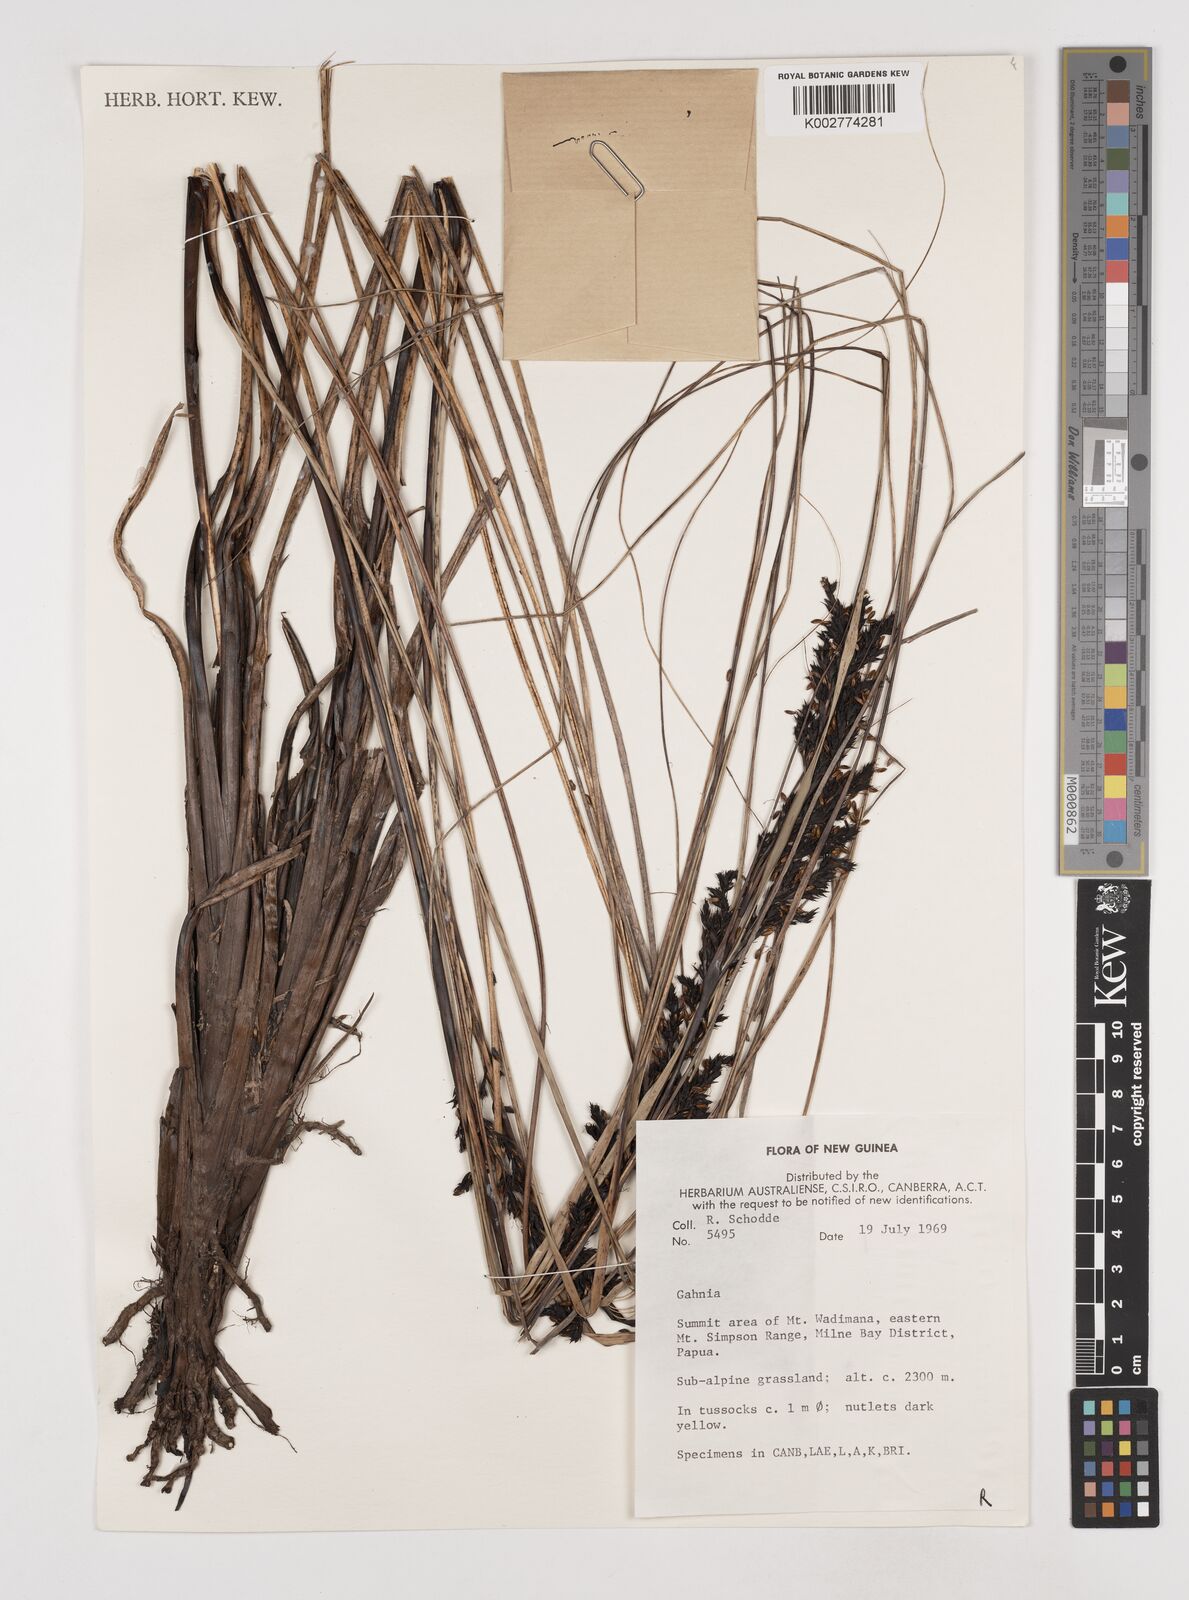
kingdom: Plantae
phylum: Tracheophyta
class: Liliopsida
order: Poales
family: Cyperaceae
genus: Gahnia
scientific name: Gahnia
